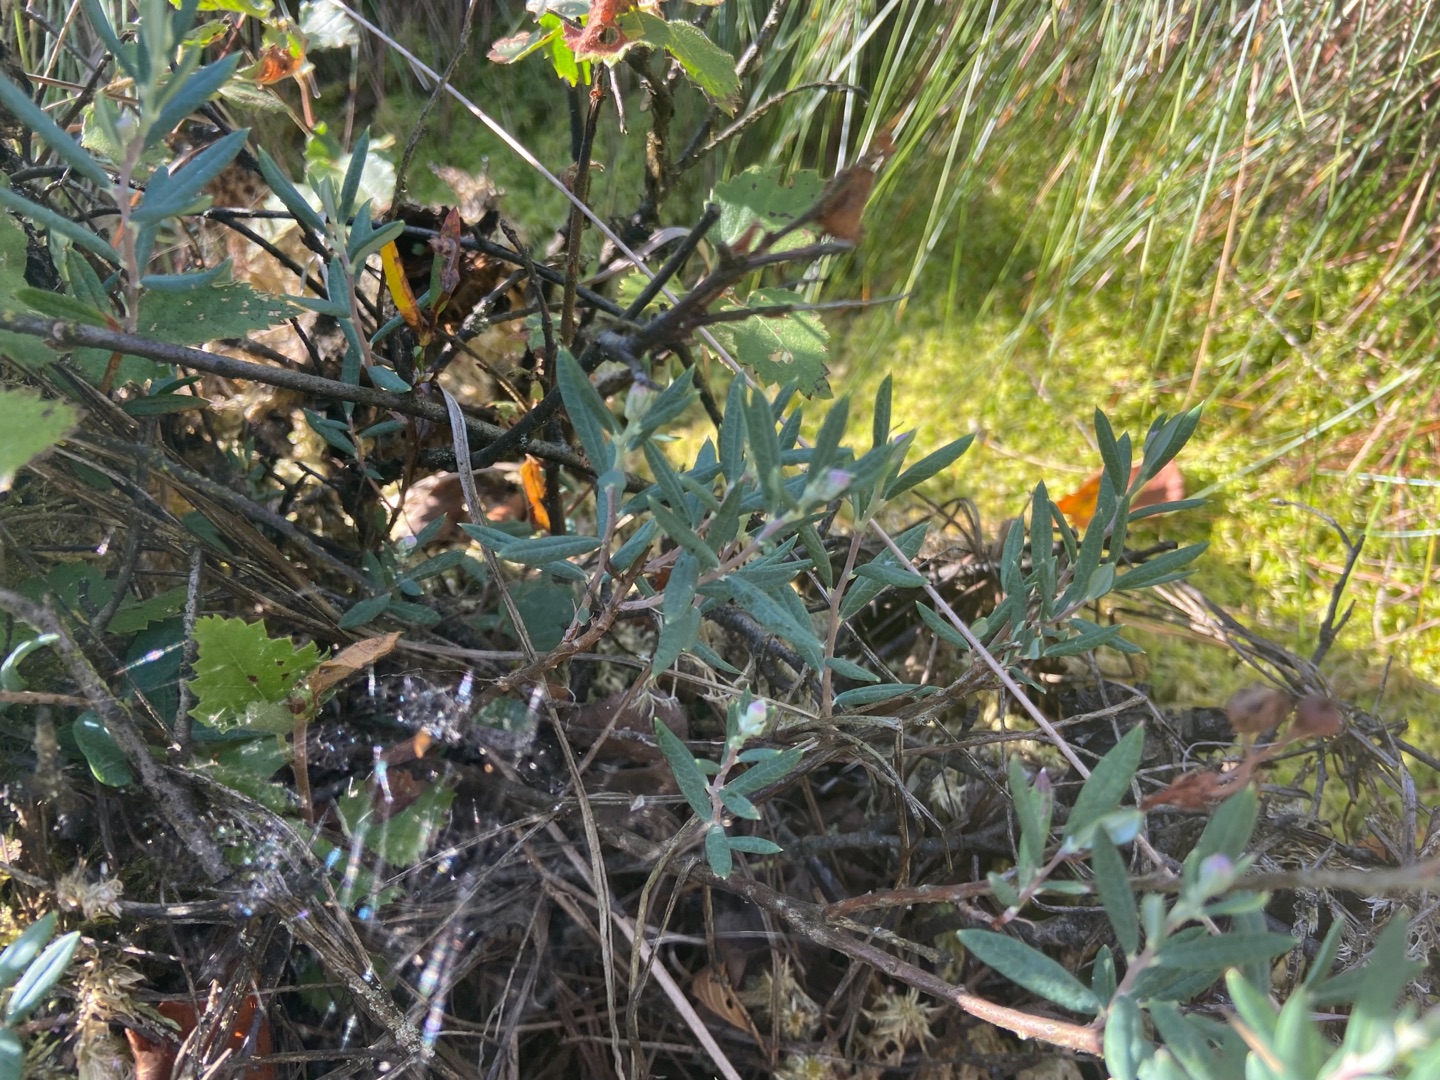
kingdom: Plantae
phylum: Tracheophyta
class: Magnoliopsida
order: Ericales
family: Ericaceae
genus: Andromeda
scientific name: Andromeda polifolia
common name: Rosmarinlyng
